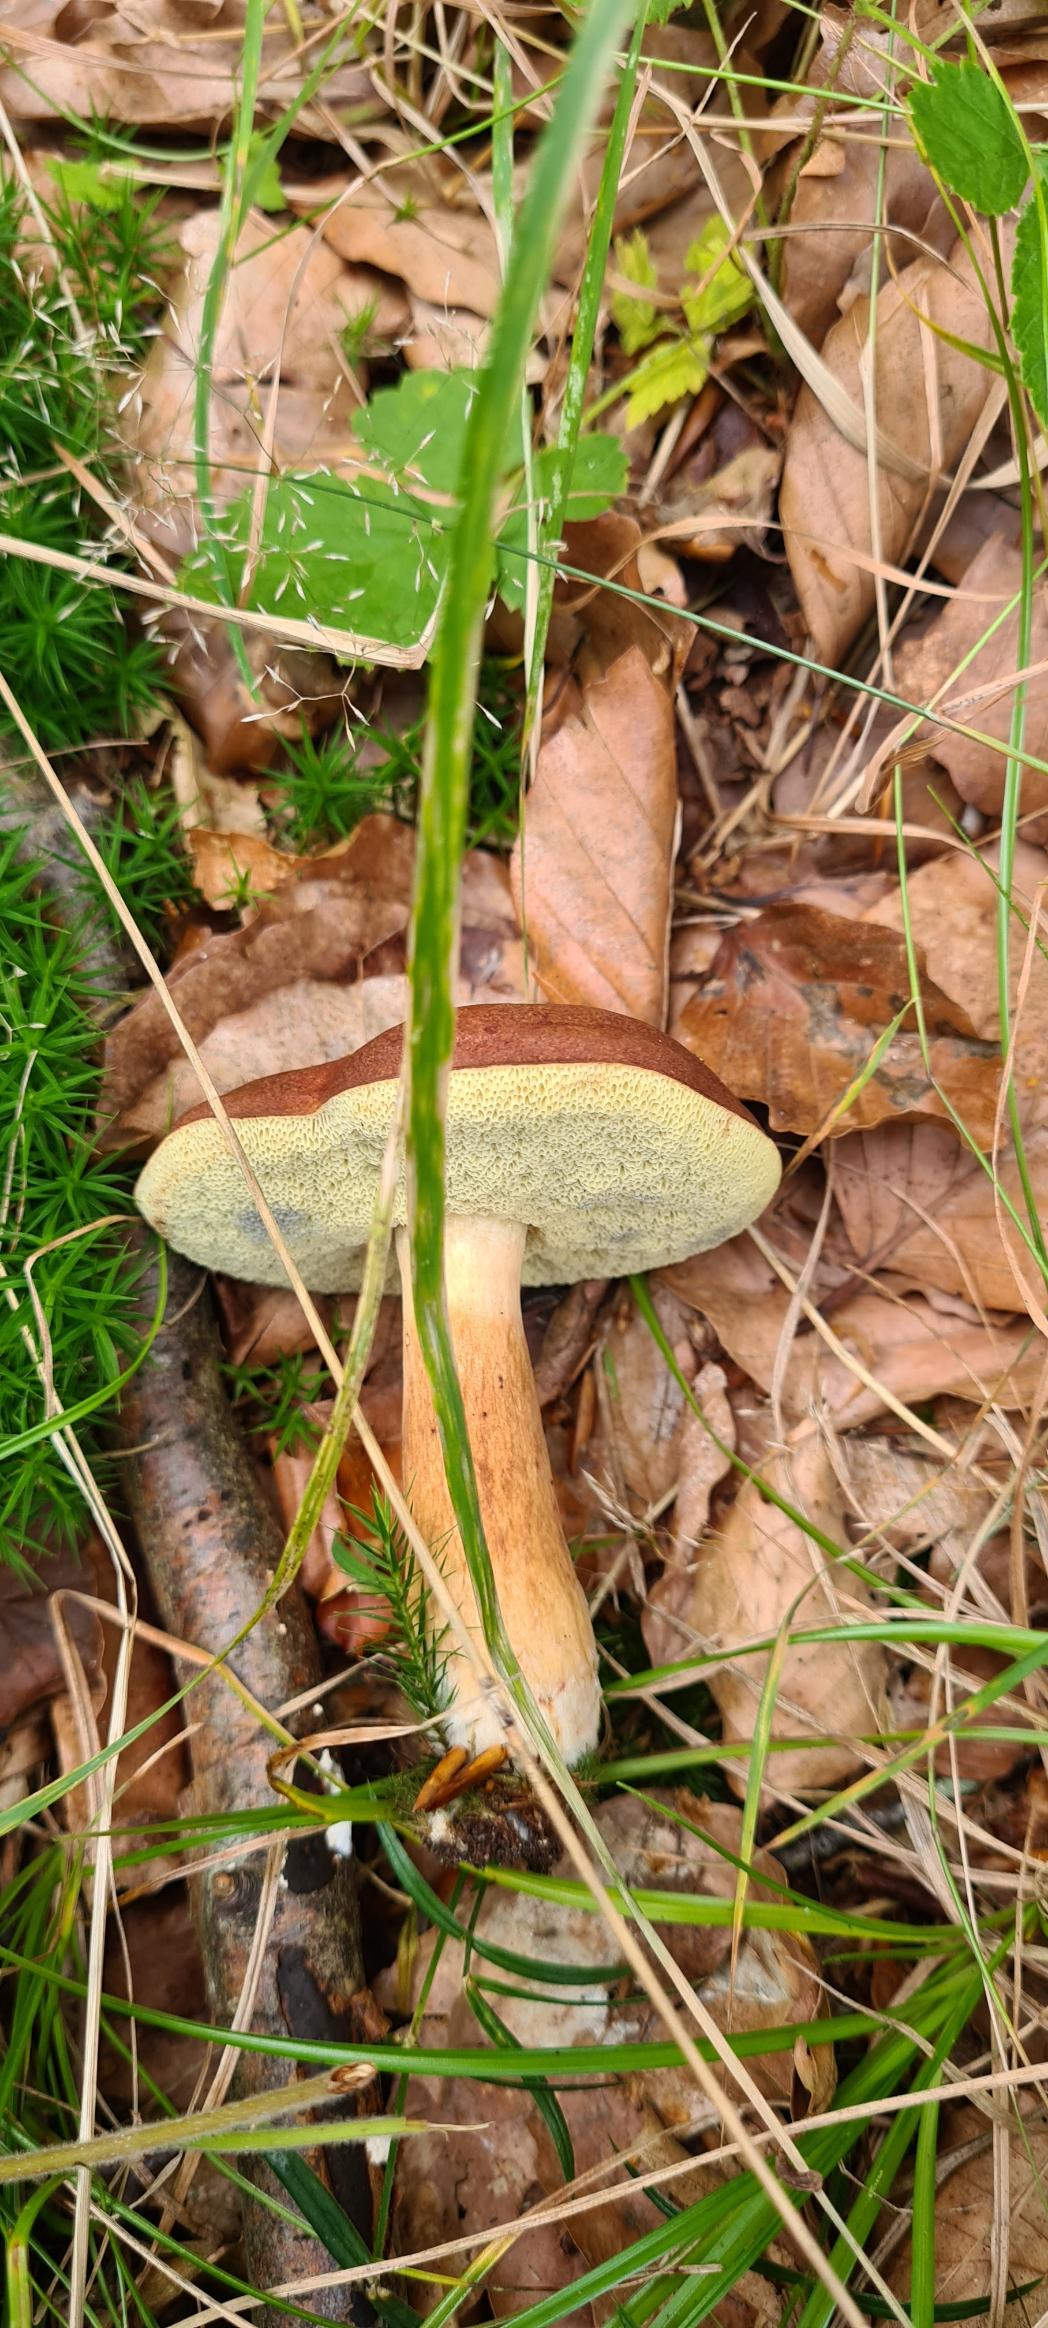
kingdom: Fungi
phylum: Basidiomycota
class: Agaricomycetes
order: Boletales
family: Boletaceae
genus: Imleria
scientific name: Imleria badia
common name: Brunstokket rørhat
